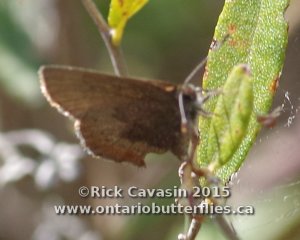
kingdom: Animalia
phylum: Arthropoda
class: Insecta
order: Lepidoptera
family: Lycaenidae
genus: Incisalia
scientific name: Incisalia irioides
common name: Brown Elfin
